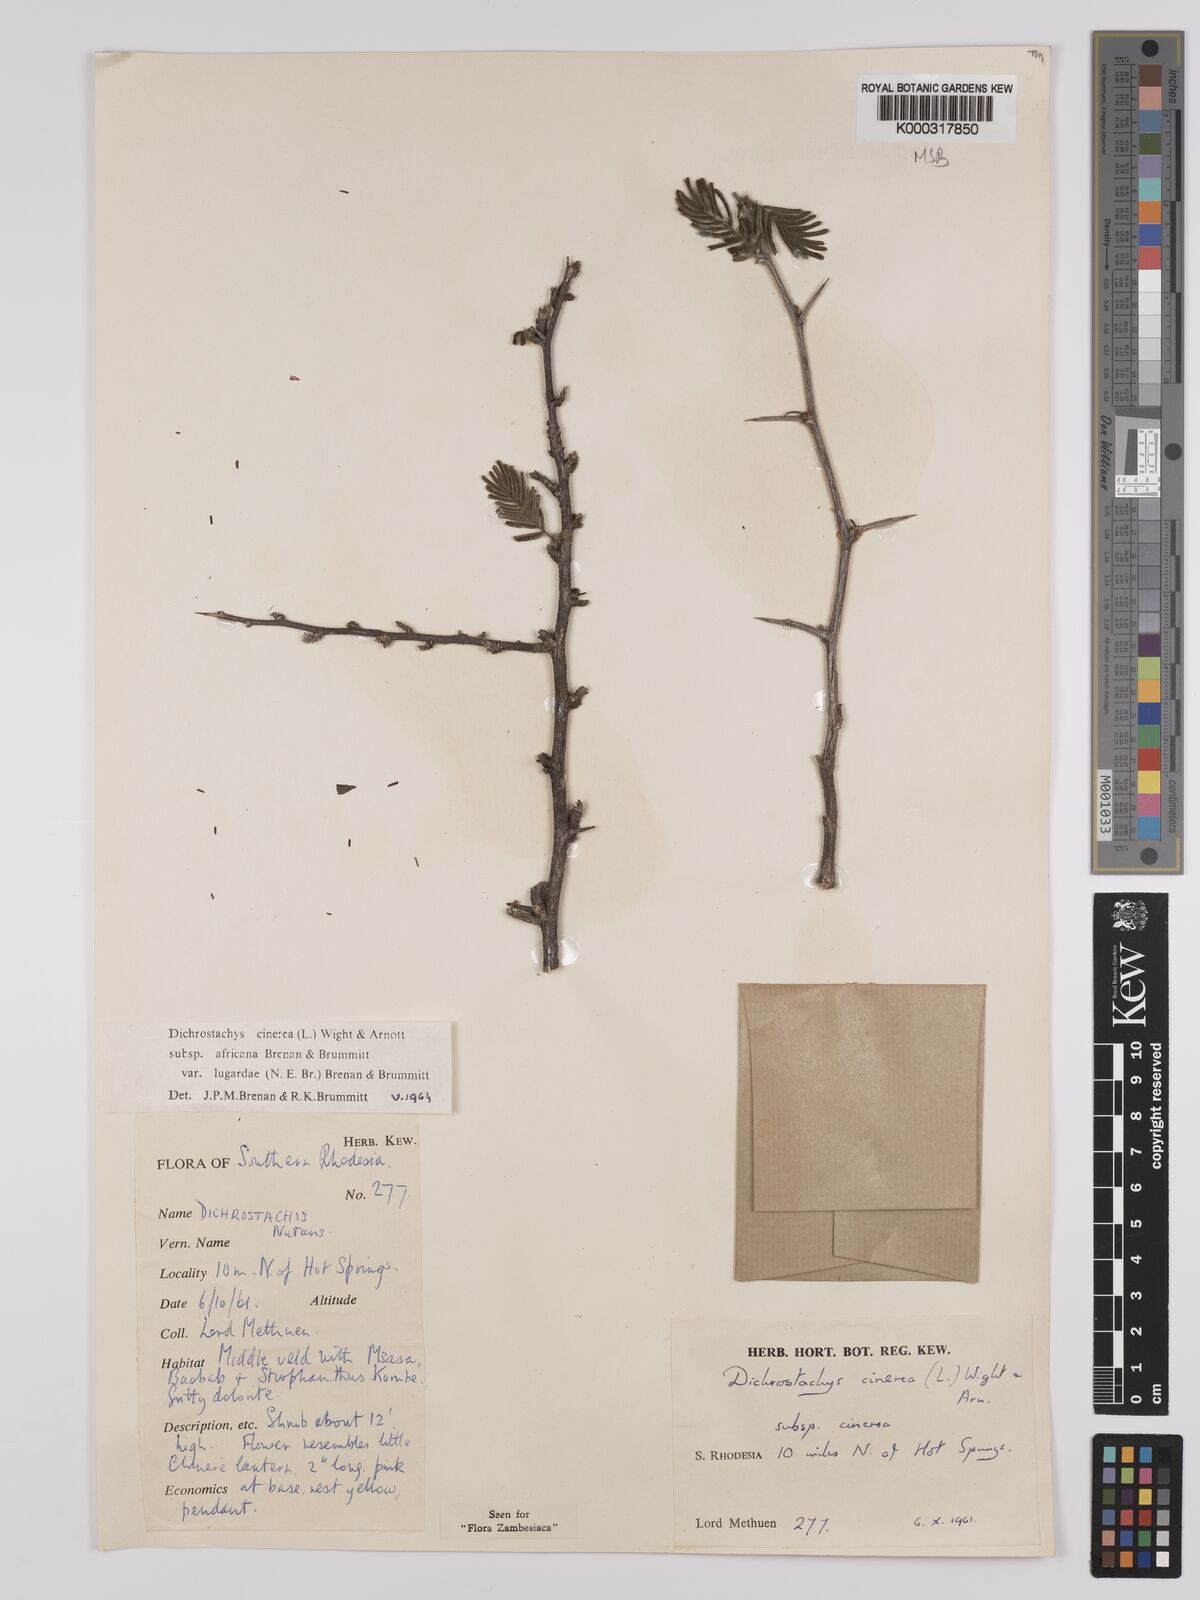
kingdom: Plantae
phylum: Tracheophyta
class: Magnoliopsida
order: Fabales
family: Fabaceae
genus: Dichrostachys
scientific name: Dichrostachys cinerea
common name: Sicklebush
